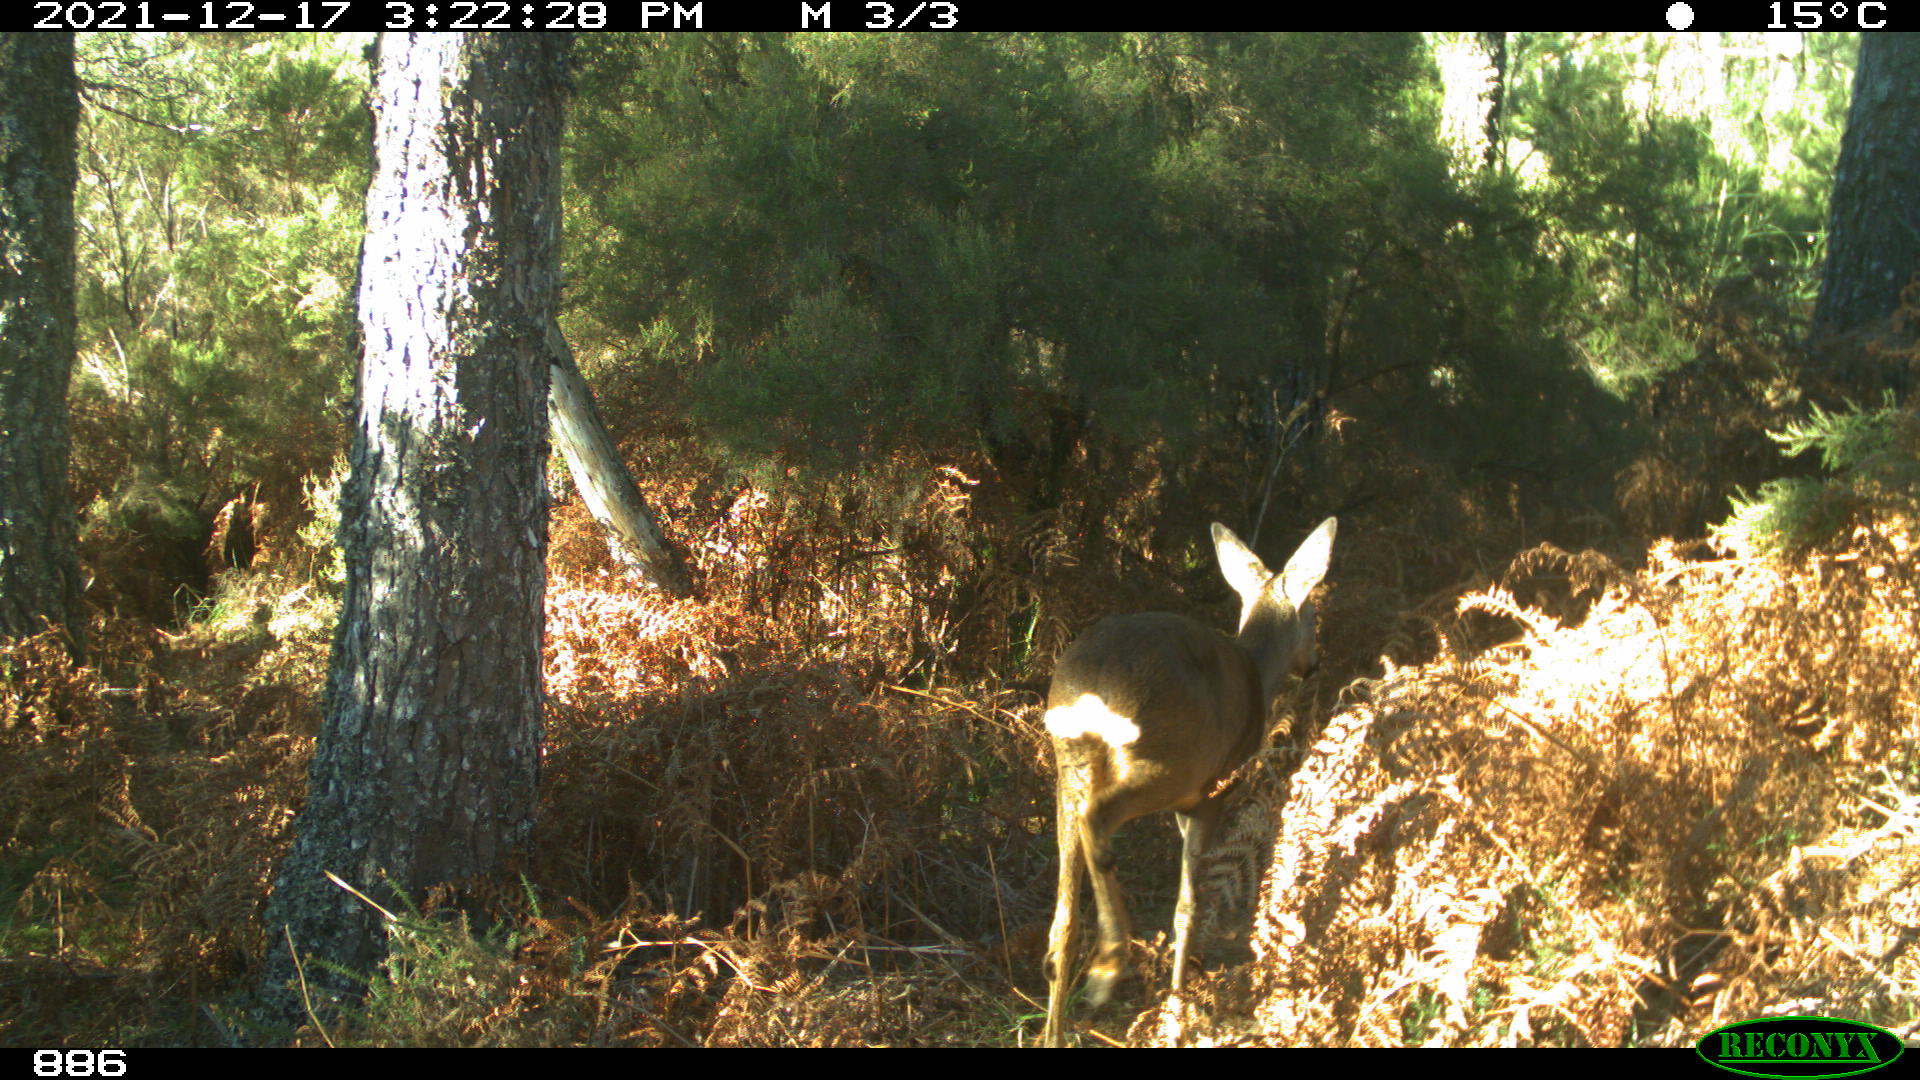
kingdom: Animalia
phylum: Chordata
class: Mammalia
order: Artiodactyla
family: Cervidae
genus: Capreolus
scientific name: Capreolus capreolus
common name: Western roe deer
